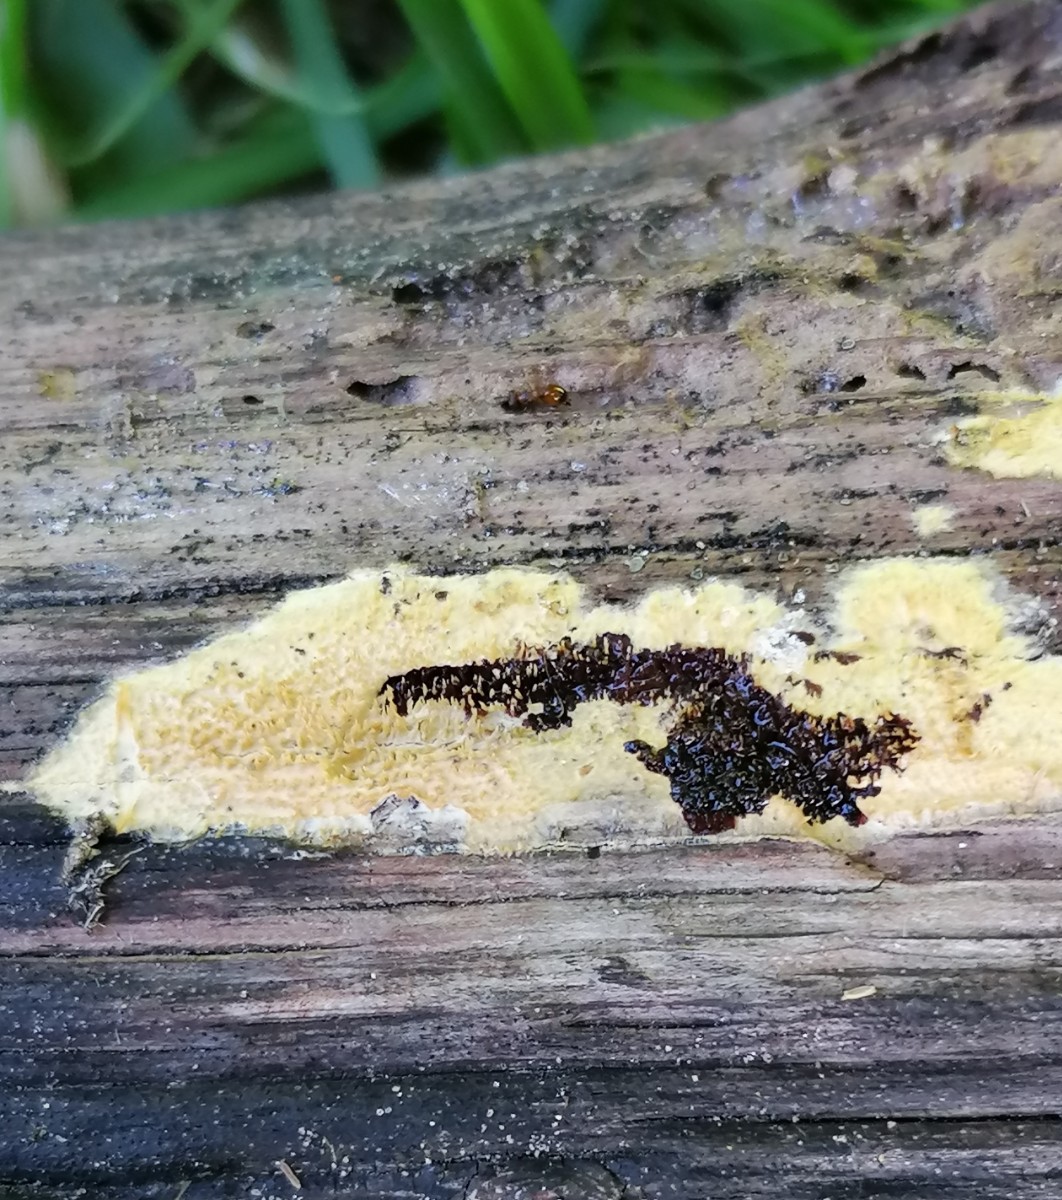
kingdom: Fungi
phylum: Basidiomycota
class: Agaricomycetes
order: Polyporales
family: Meruliaceae
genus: Mycoacia
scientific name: Mycoacia uda
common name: citrongul vokspig
